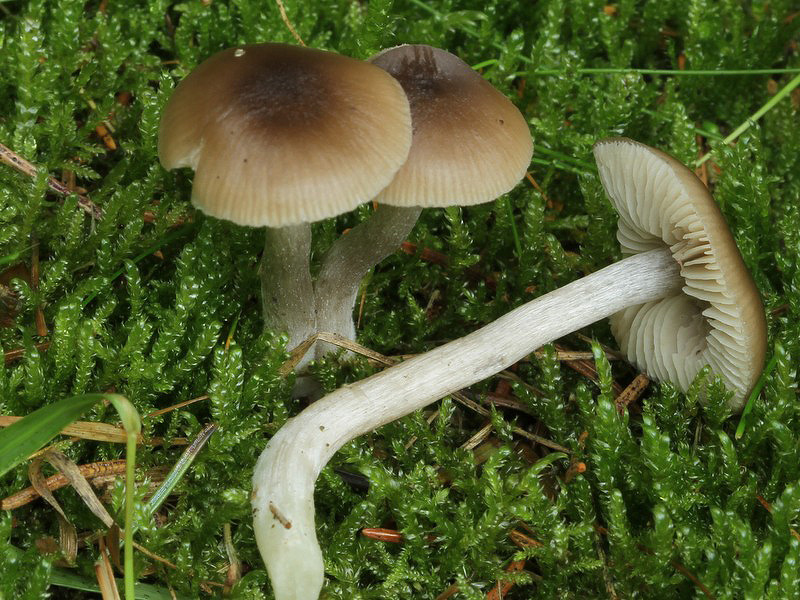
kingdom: Fungi
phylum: Basidiomycota
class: Agaricomycetes
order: Agaricales
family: Entolomataceae
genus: Entocybe
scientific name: Entocybe turbida
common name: plantage-rødblad
